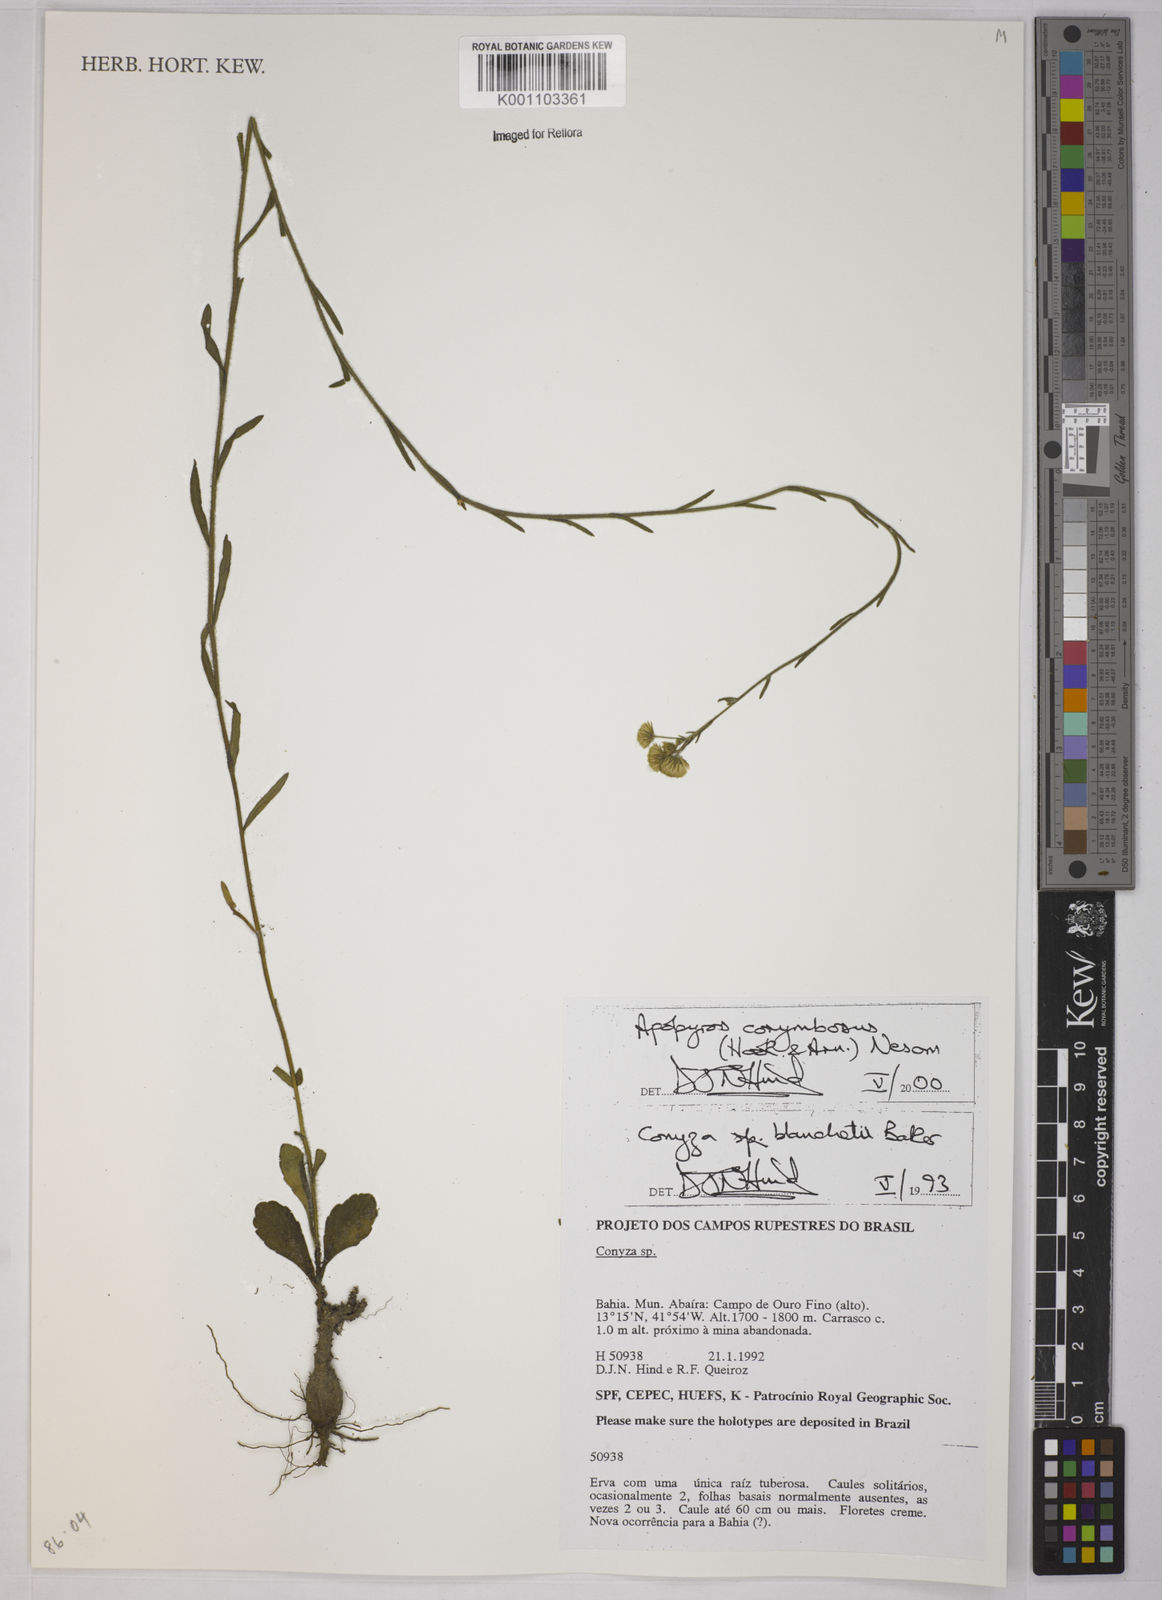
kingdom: Plantae
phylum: Tracheophyta
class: Magnoliopsida
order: Asterales
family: Asteraceae
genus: Apopyros
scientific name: Apopyros corymbosus
